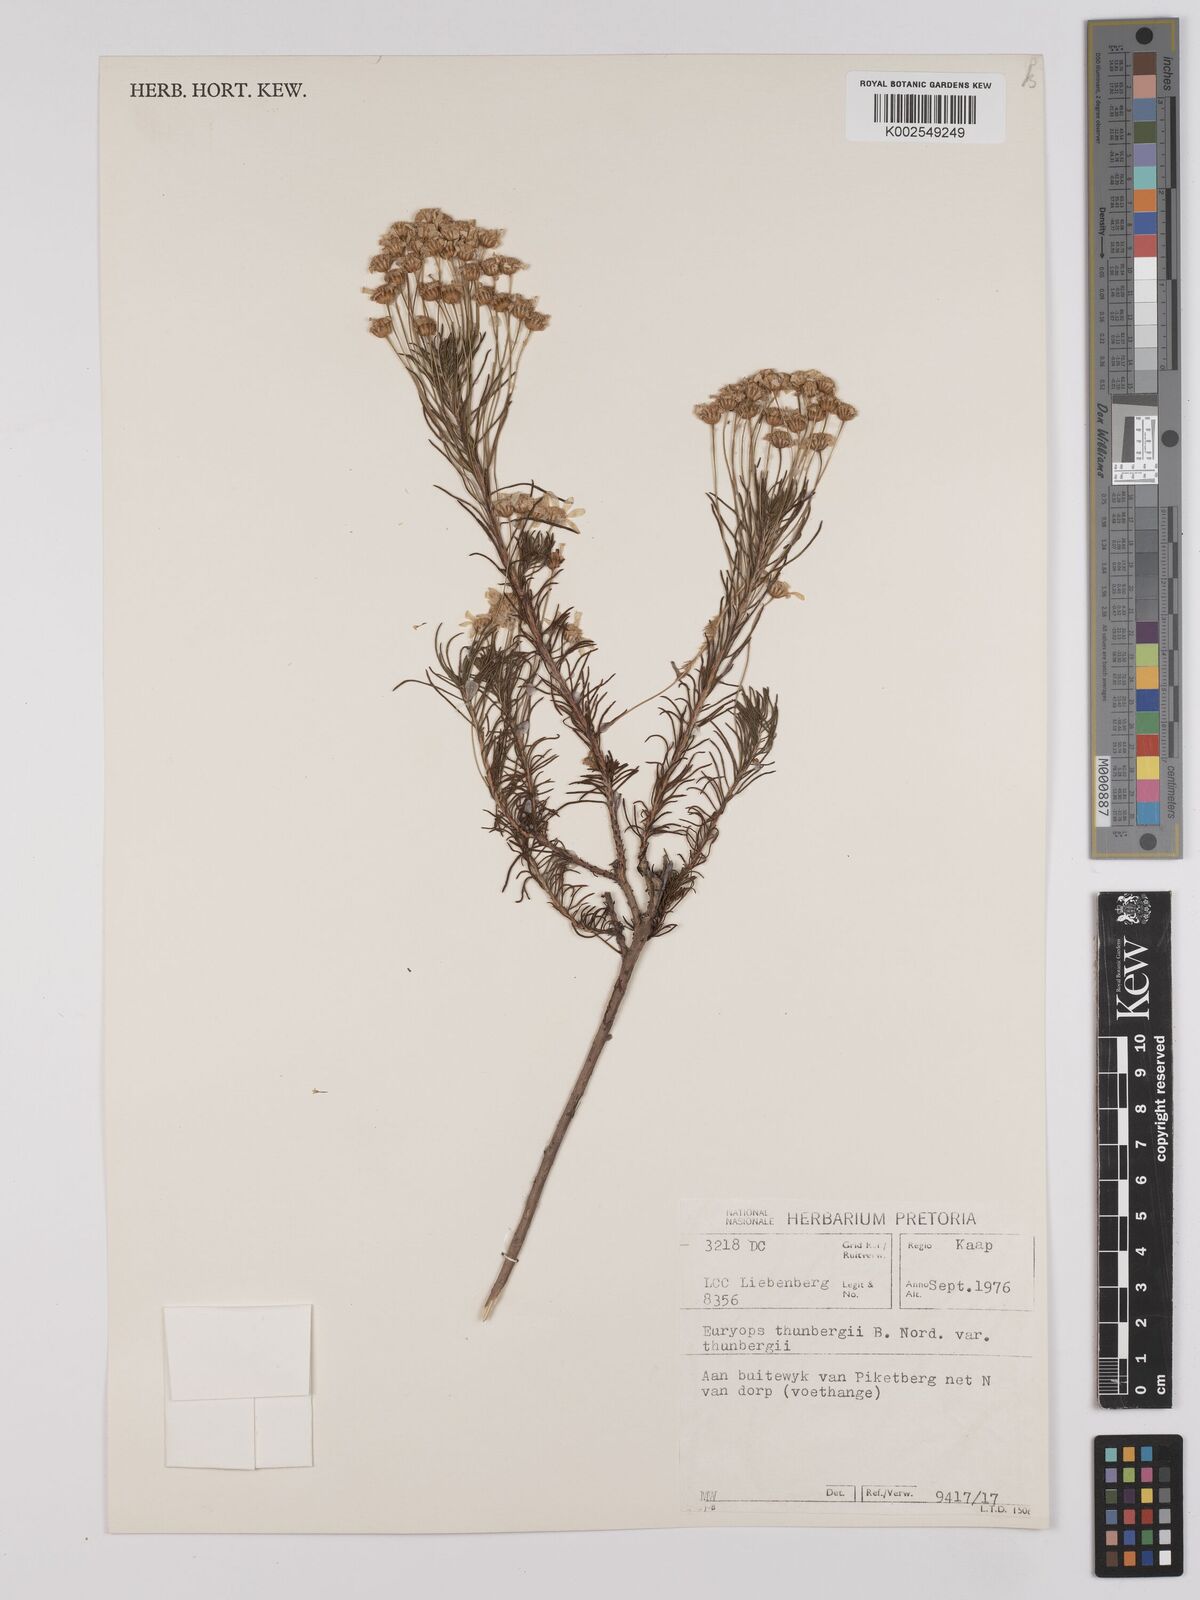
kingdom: Plantae
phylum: Tracheophyta
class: Magnoliopsida
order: Asterales
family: Asteraceae
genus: Euryops
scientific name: Euryops thunbergii
